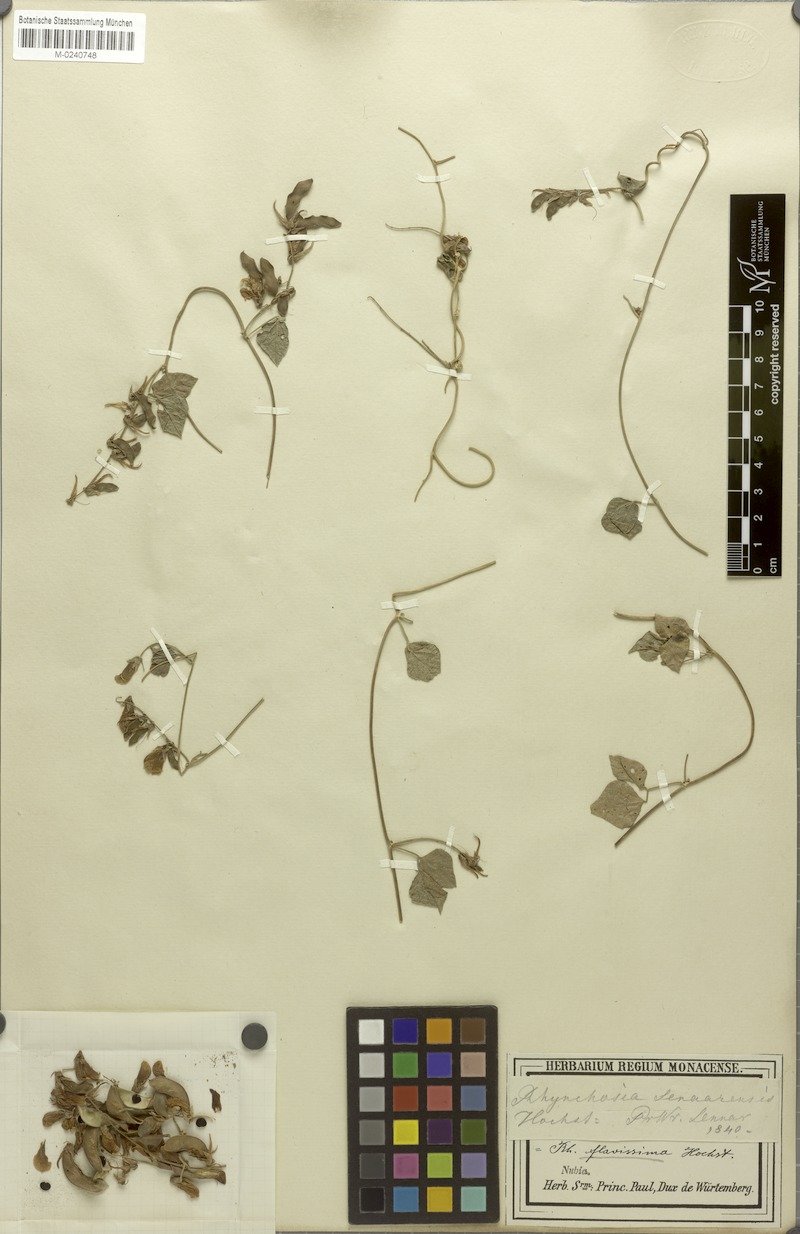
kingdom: Plantae
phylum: Tracheophyta
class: Magnoliopsida
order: Fabales
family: Fabaceae
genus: Rhynchosia
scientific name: Rhynchosia malacophylla
